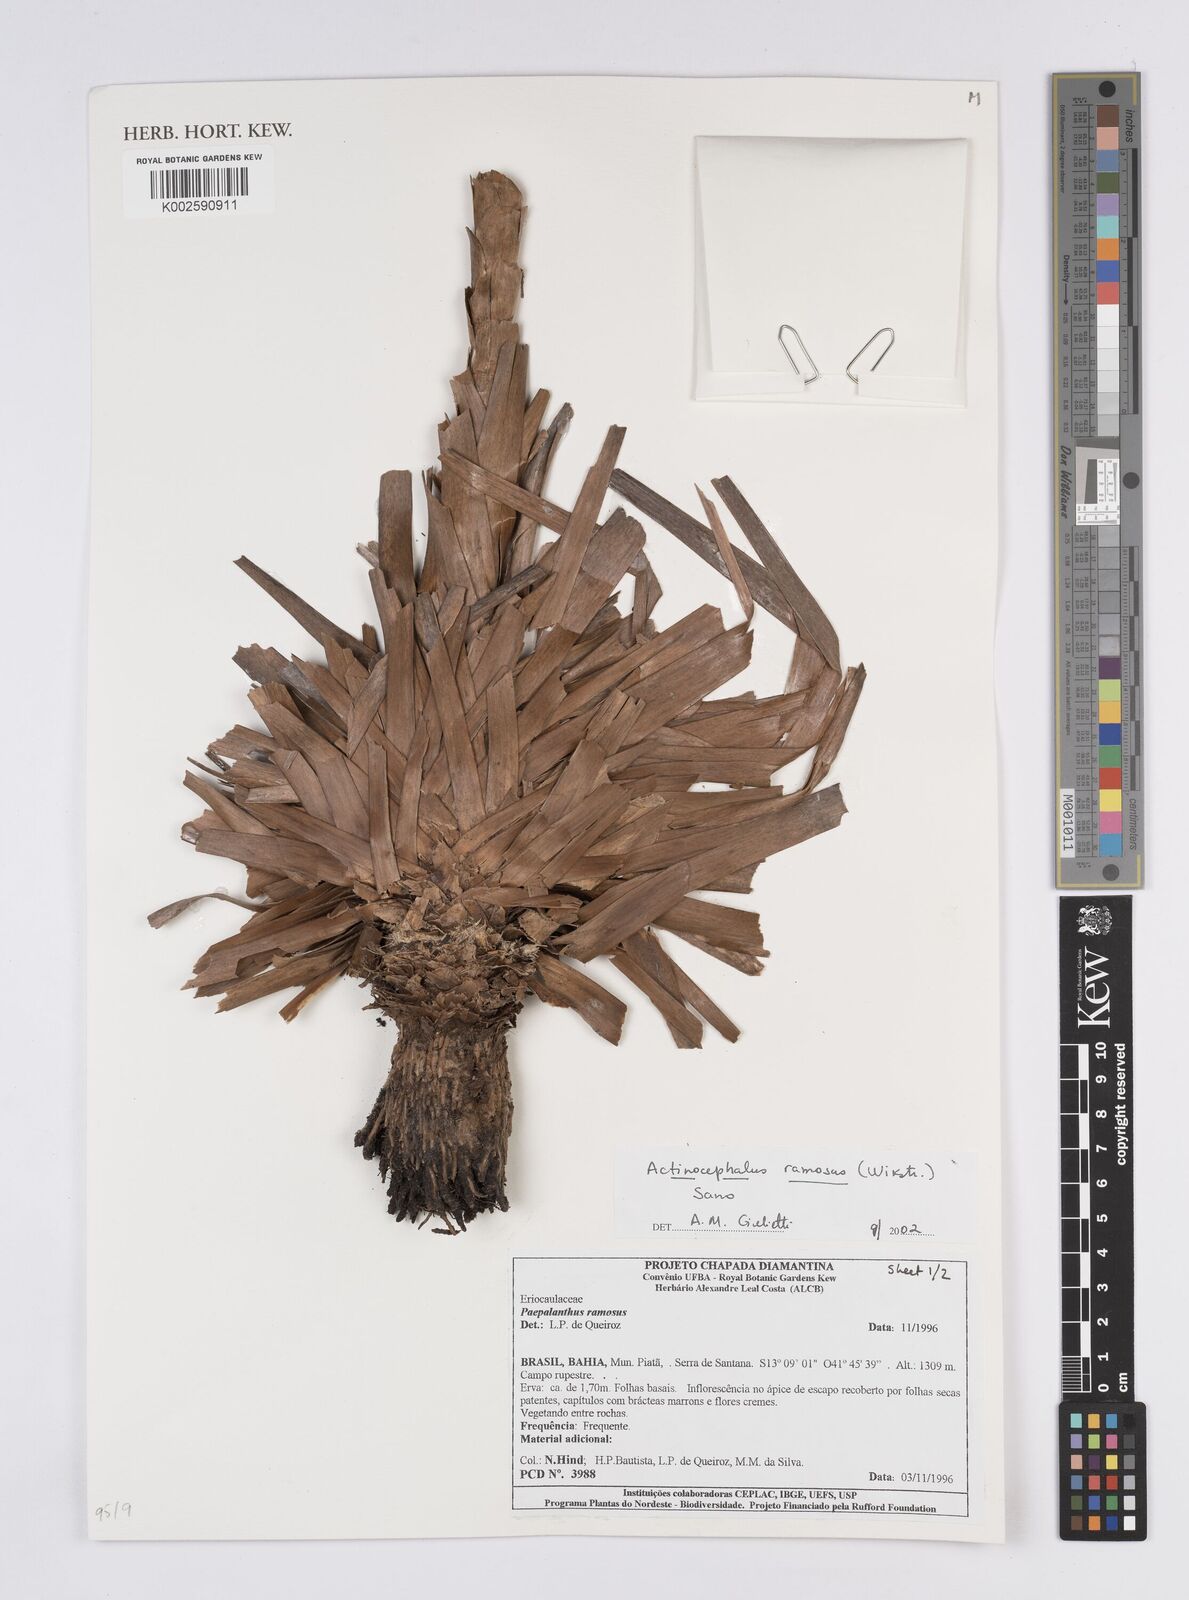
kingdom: Plantae
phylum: Tracheophyta
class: Liliopsida
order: Poales
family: Eriocaulaceae
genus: Paepalanthus
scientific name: Paepalanthus ramosus
